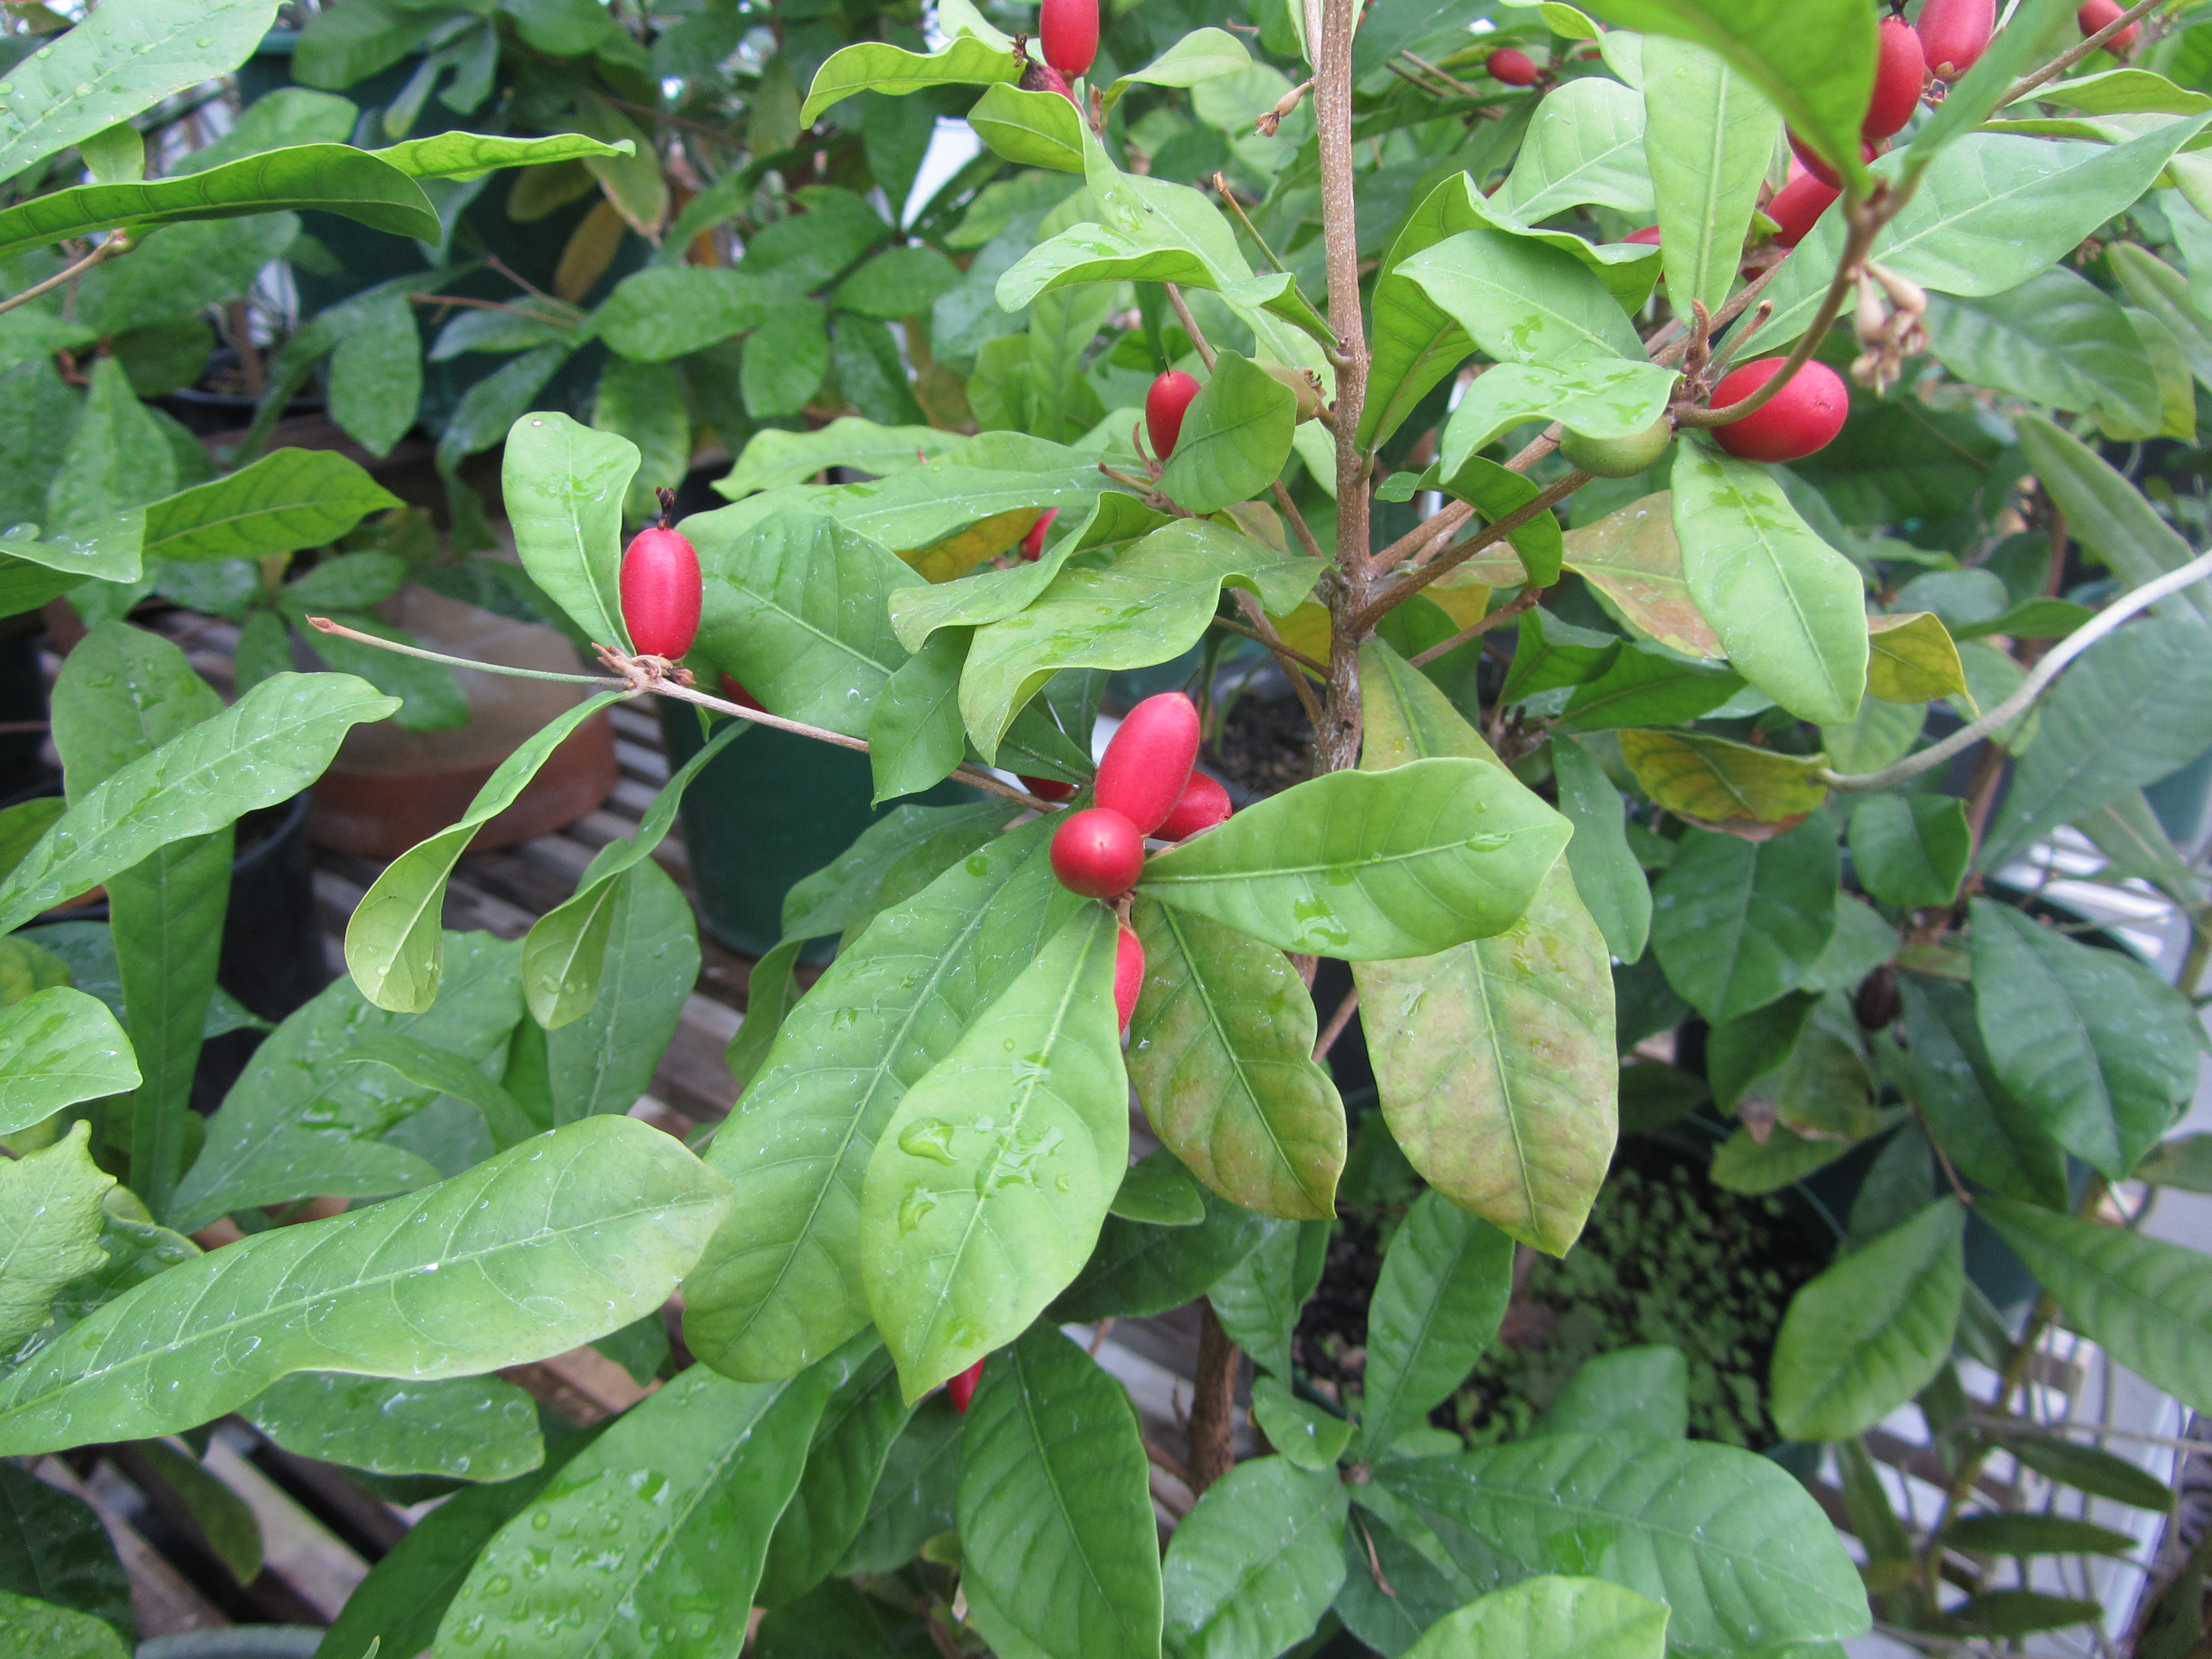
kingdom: Plantae
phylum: Tracheophyta
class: Magnoliopsida
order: Ericales
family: Sapotaceae
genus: Synsepalum
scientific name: Synsepalum dulcificum
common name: Miracle-fruit
